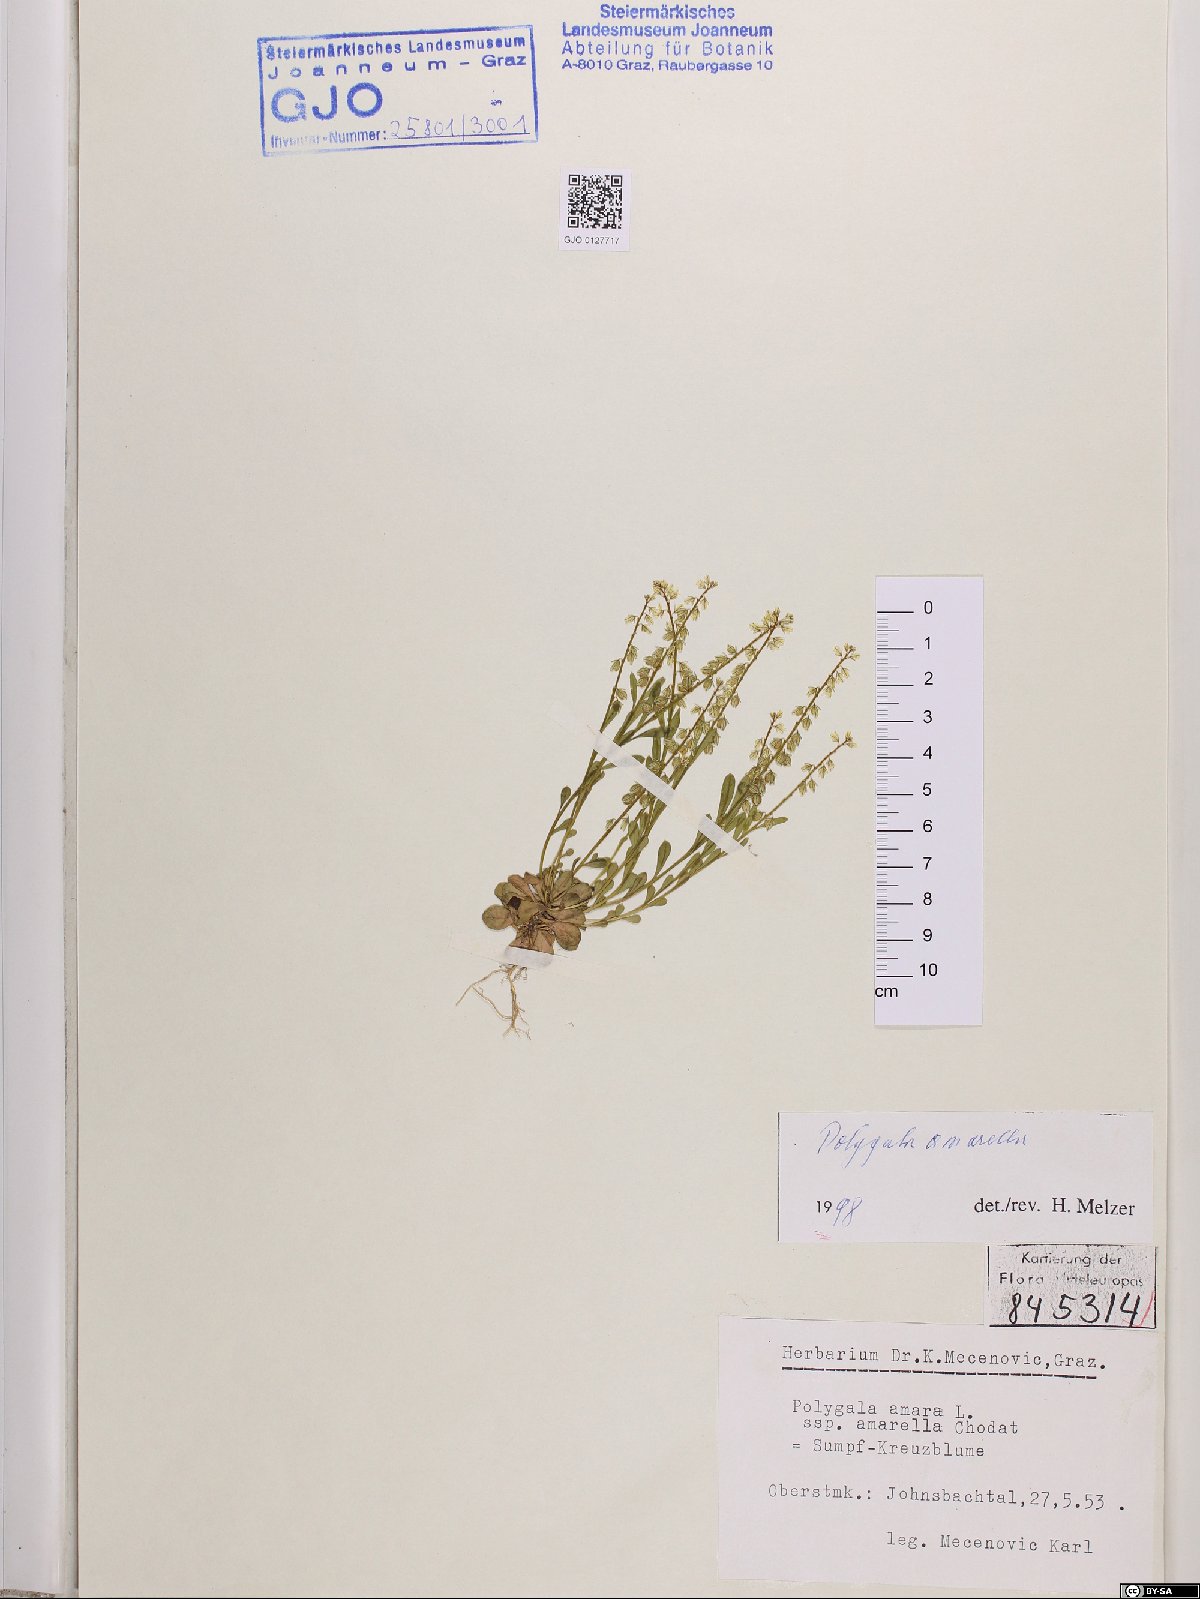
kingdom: Plantae
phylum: Tracheophyta
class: Magnoliopsida
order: Fabales
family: Polygalaceae
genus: Polygala
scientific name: Polygala amarella
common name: Dwarf milkwort
